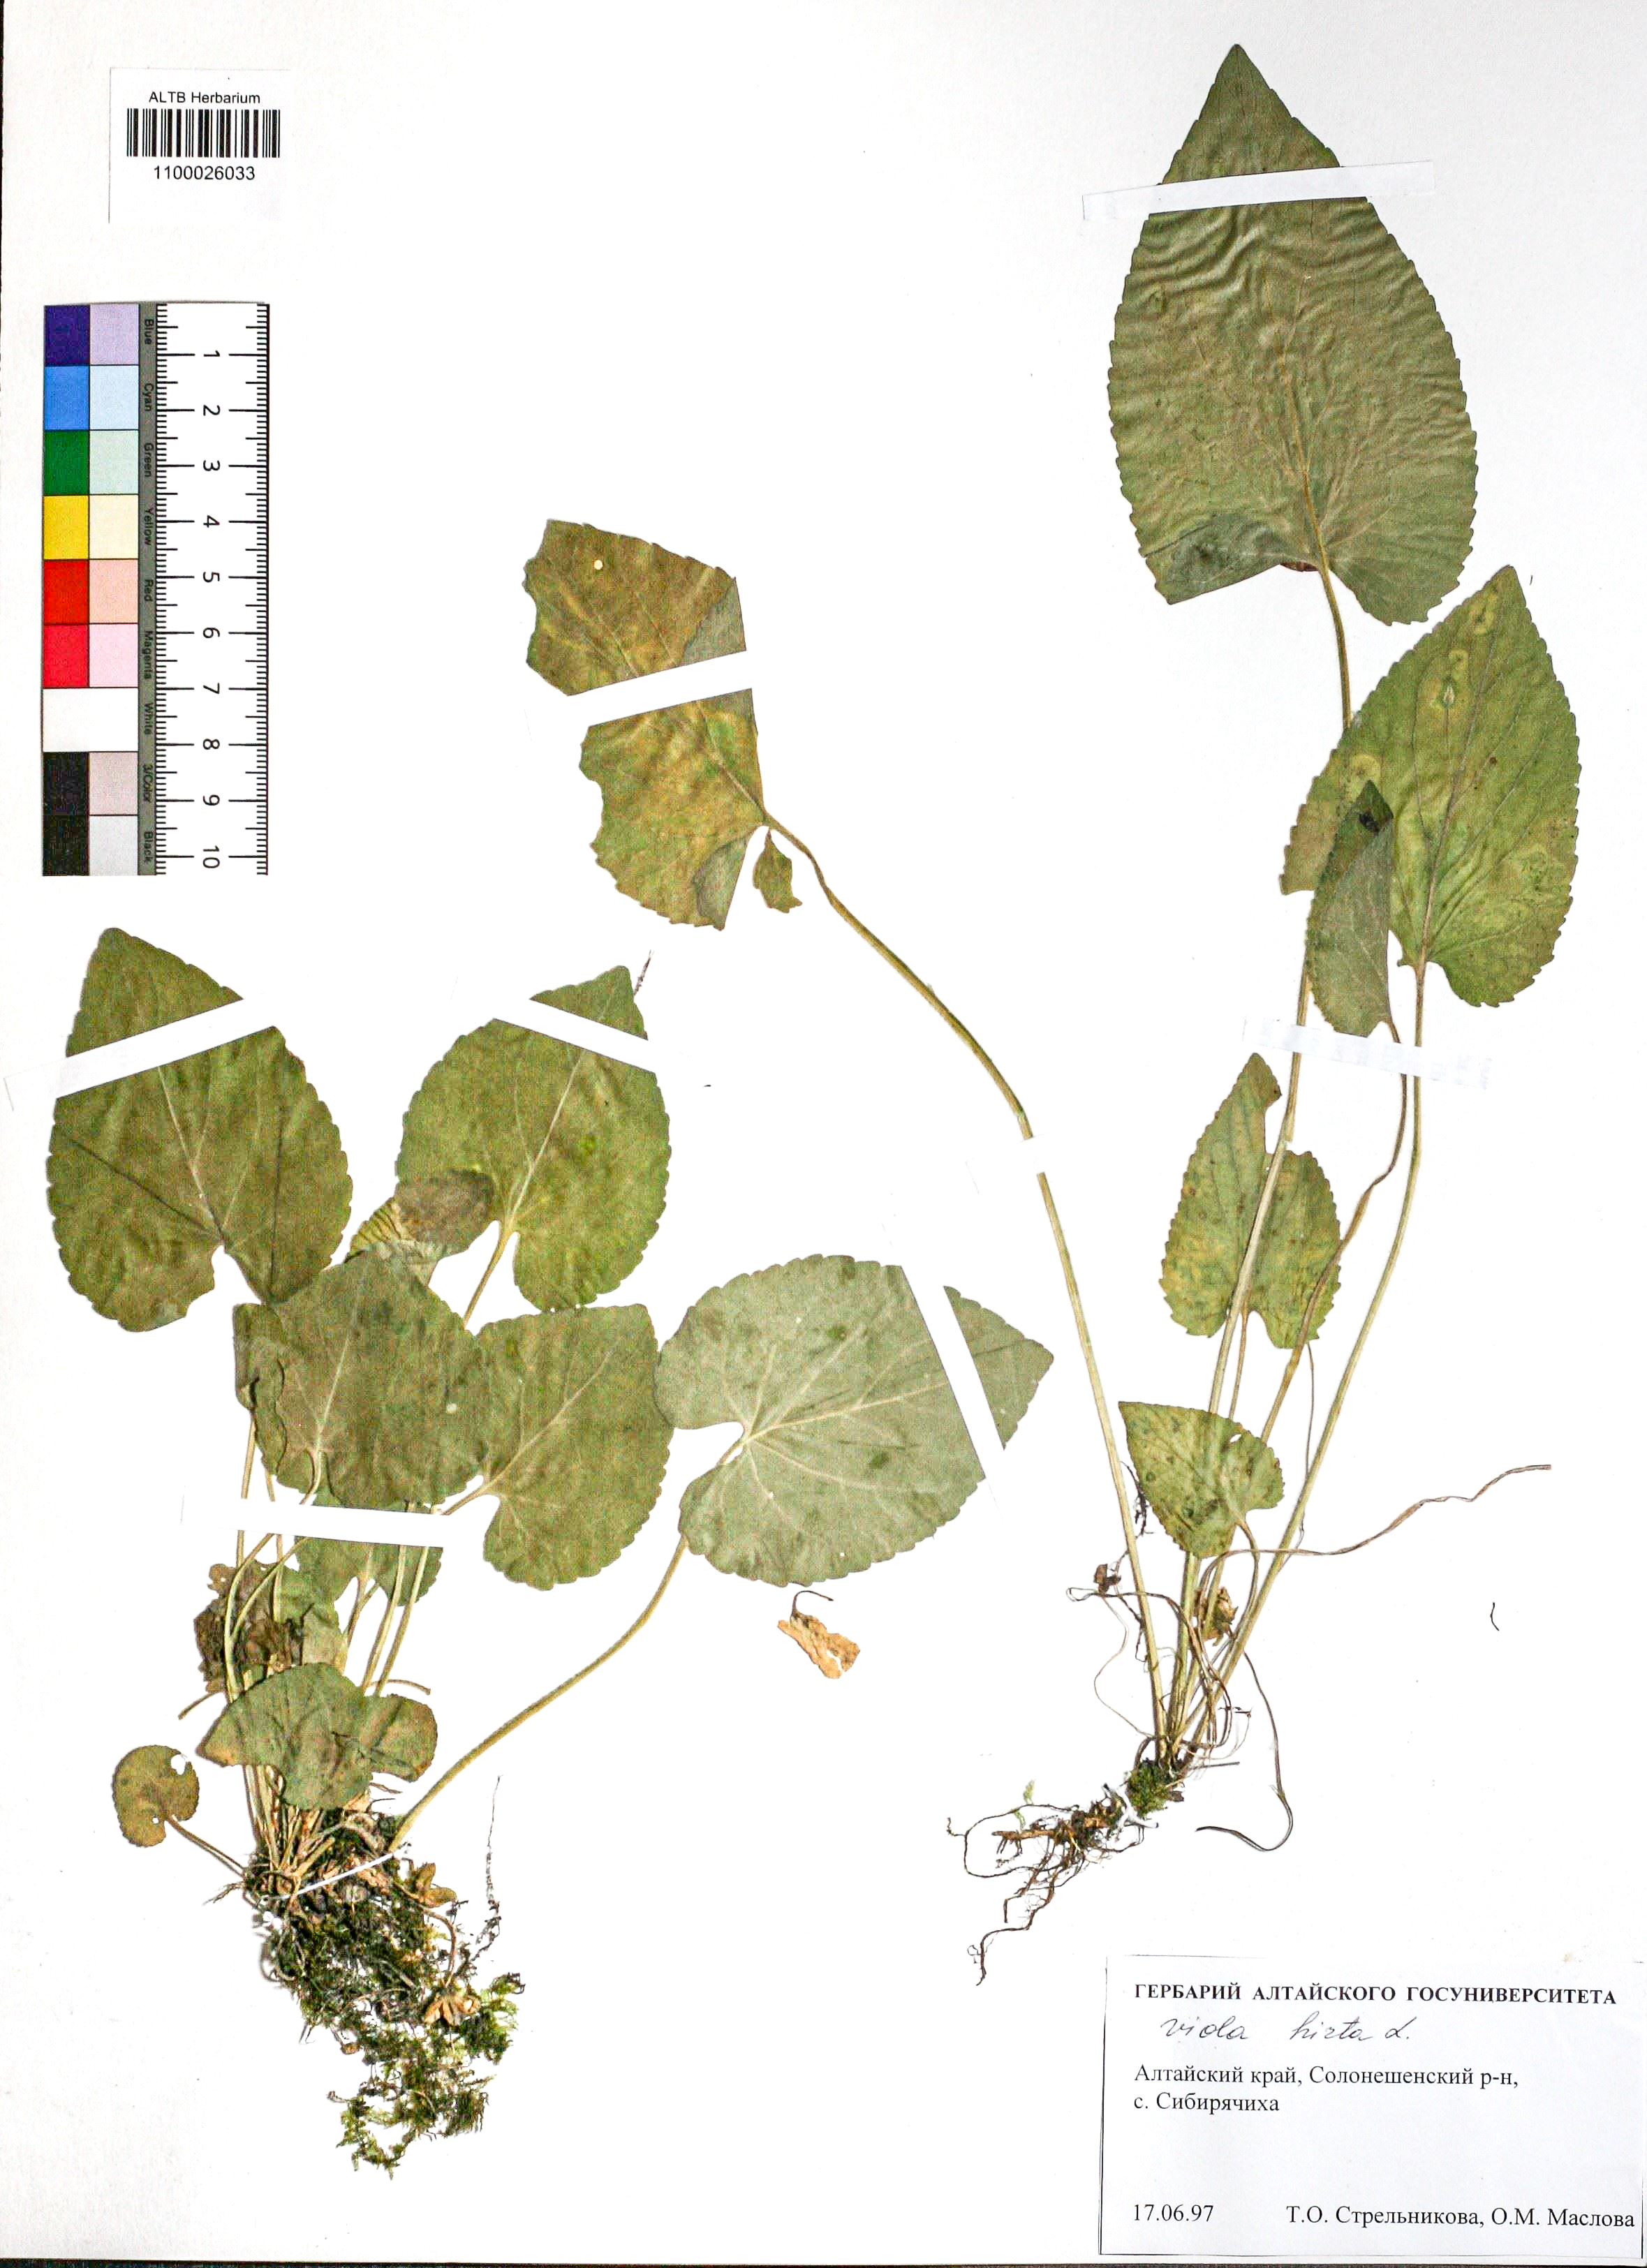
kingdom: Plantae
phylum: Tracheophyta
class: Magnoliopsida
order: Malpighiales
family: Violaceae
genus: Viola
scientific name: Viola hirta
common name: Hairy violet
